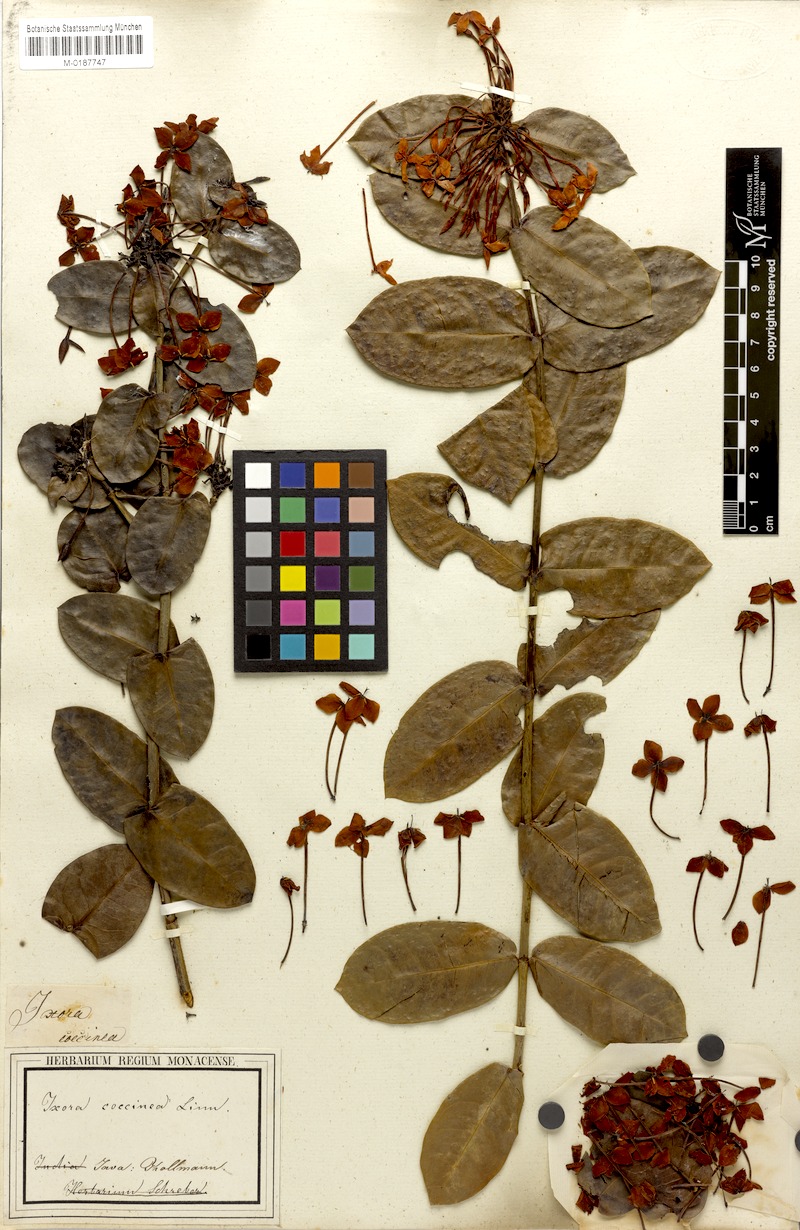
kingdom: Plantae
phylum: Tracheophyta
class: Magnoliopsida
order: Gentianales
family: Rubiaceae
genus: Ixora
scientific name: Ixora coccinea
